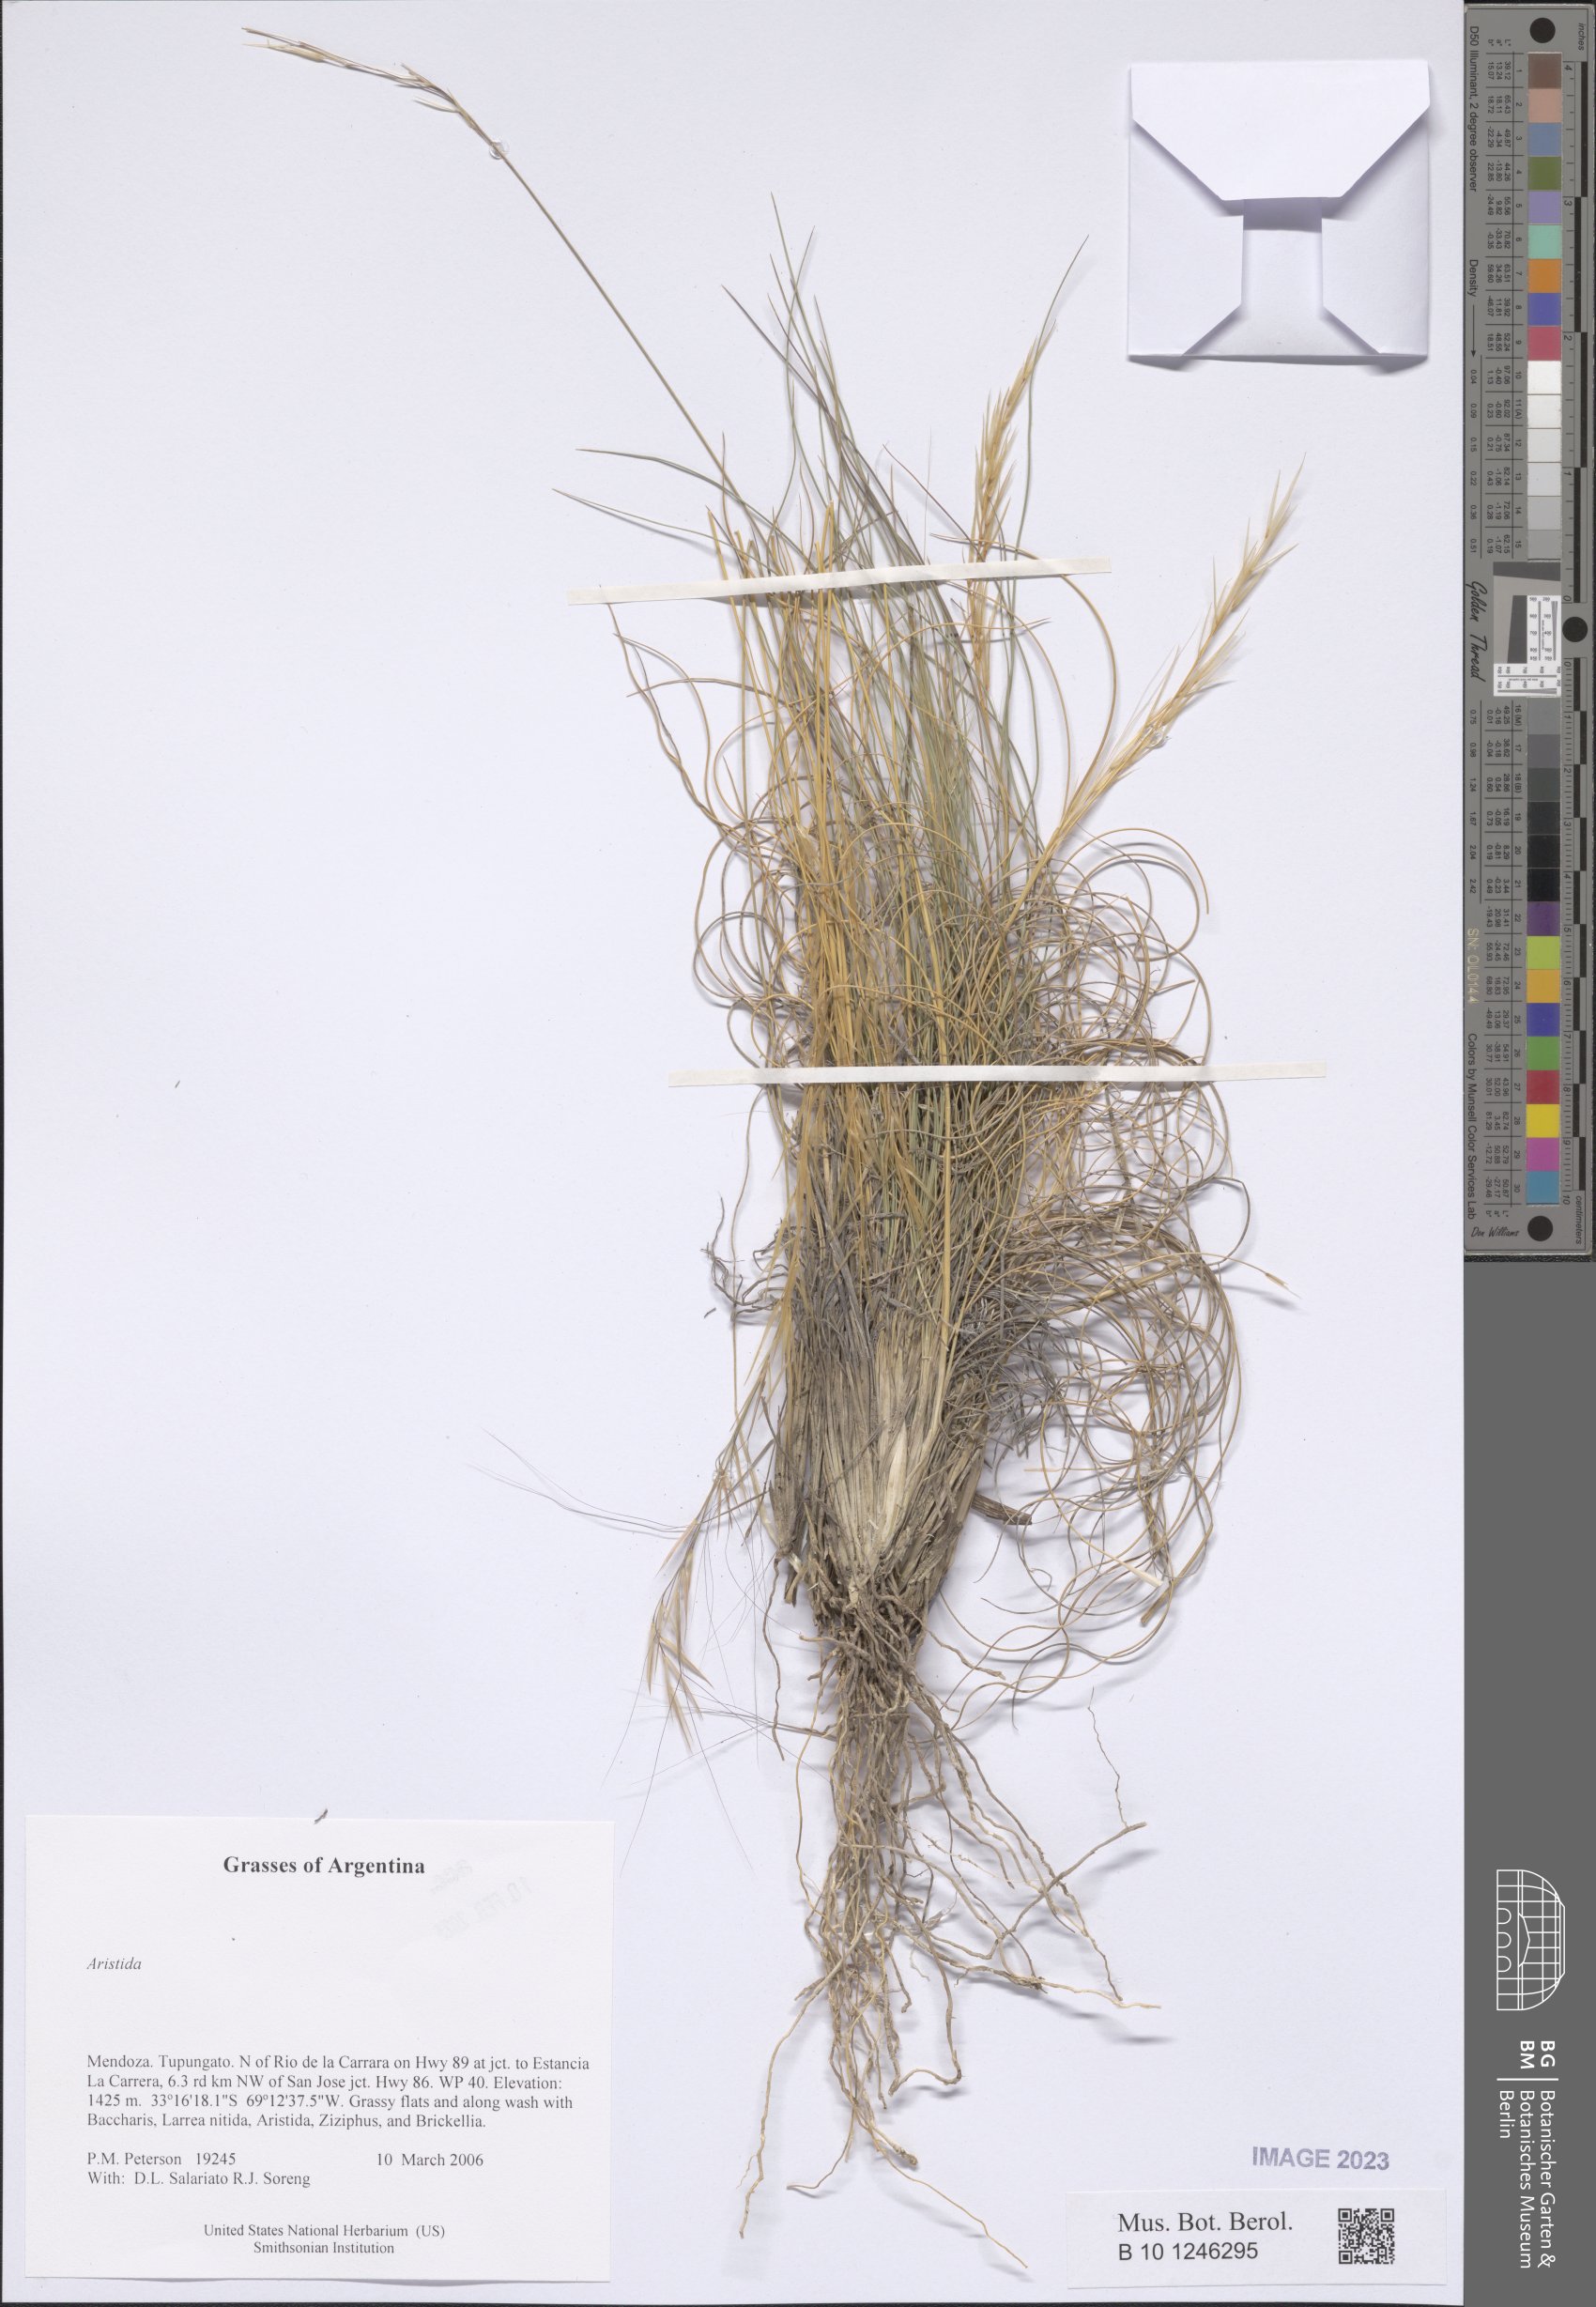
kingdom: Plantae
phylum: Tracheophyta
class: Liliopsida
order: Poales
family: Poaceae
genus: Aristida
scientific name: Aristida
